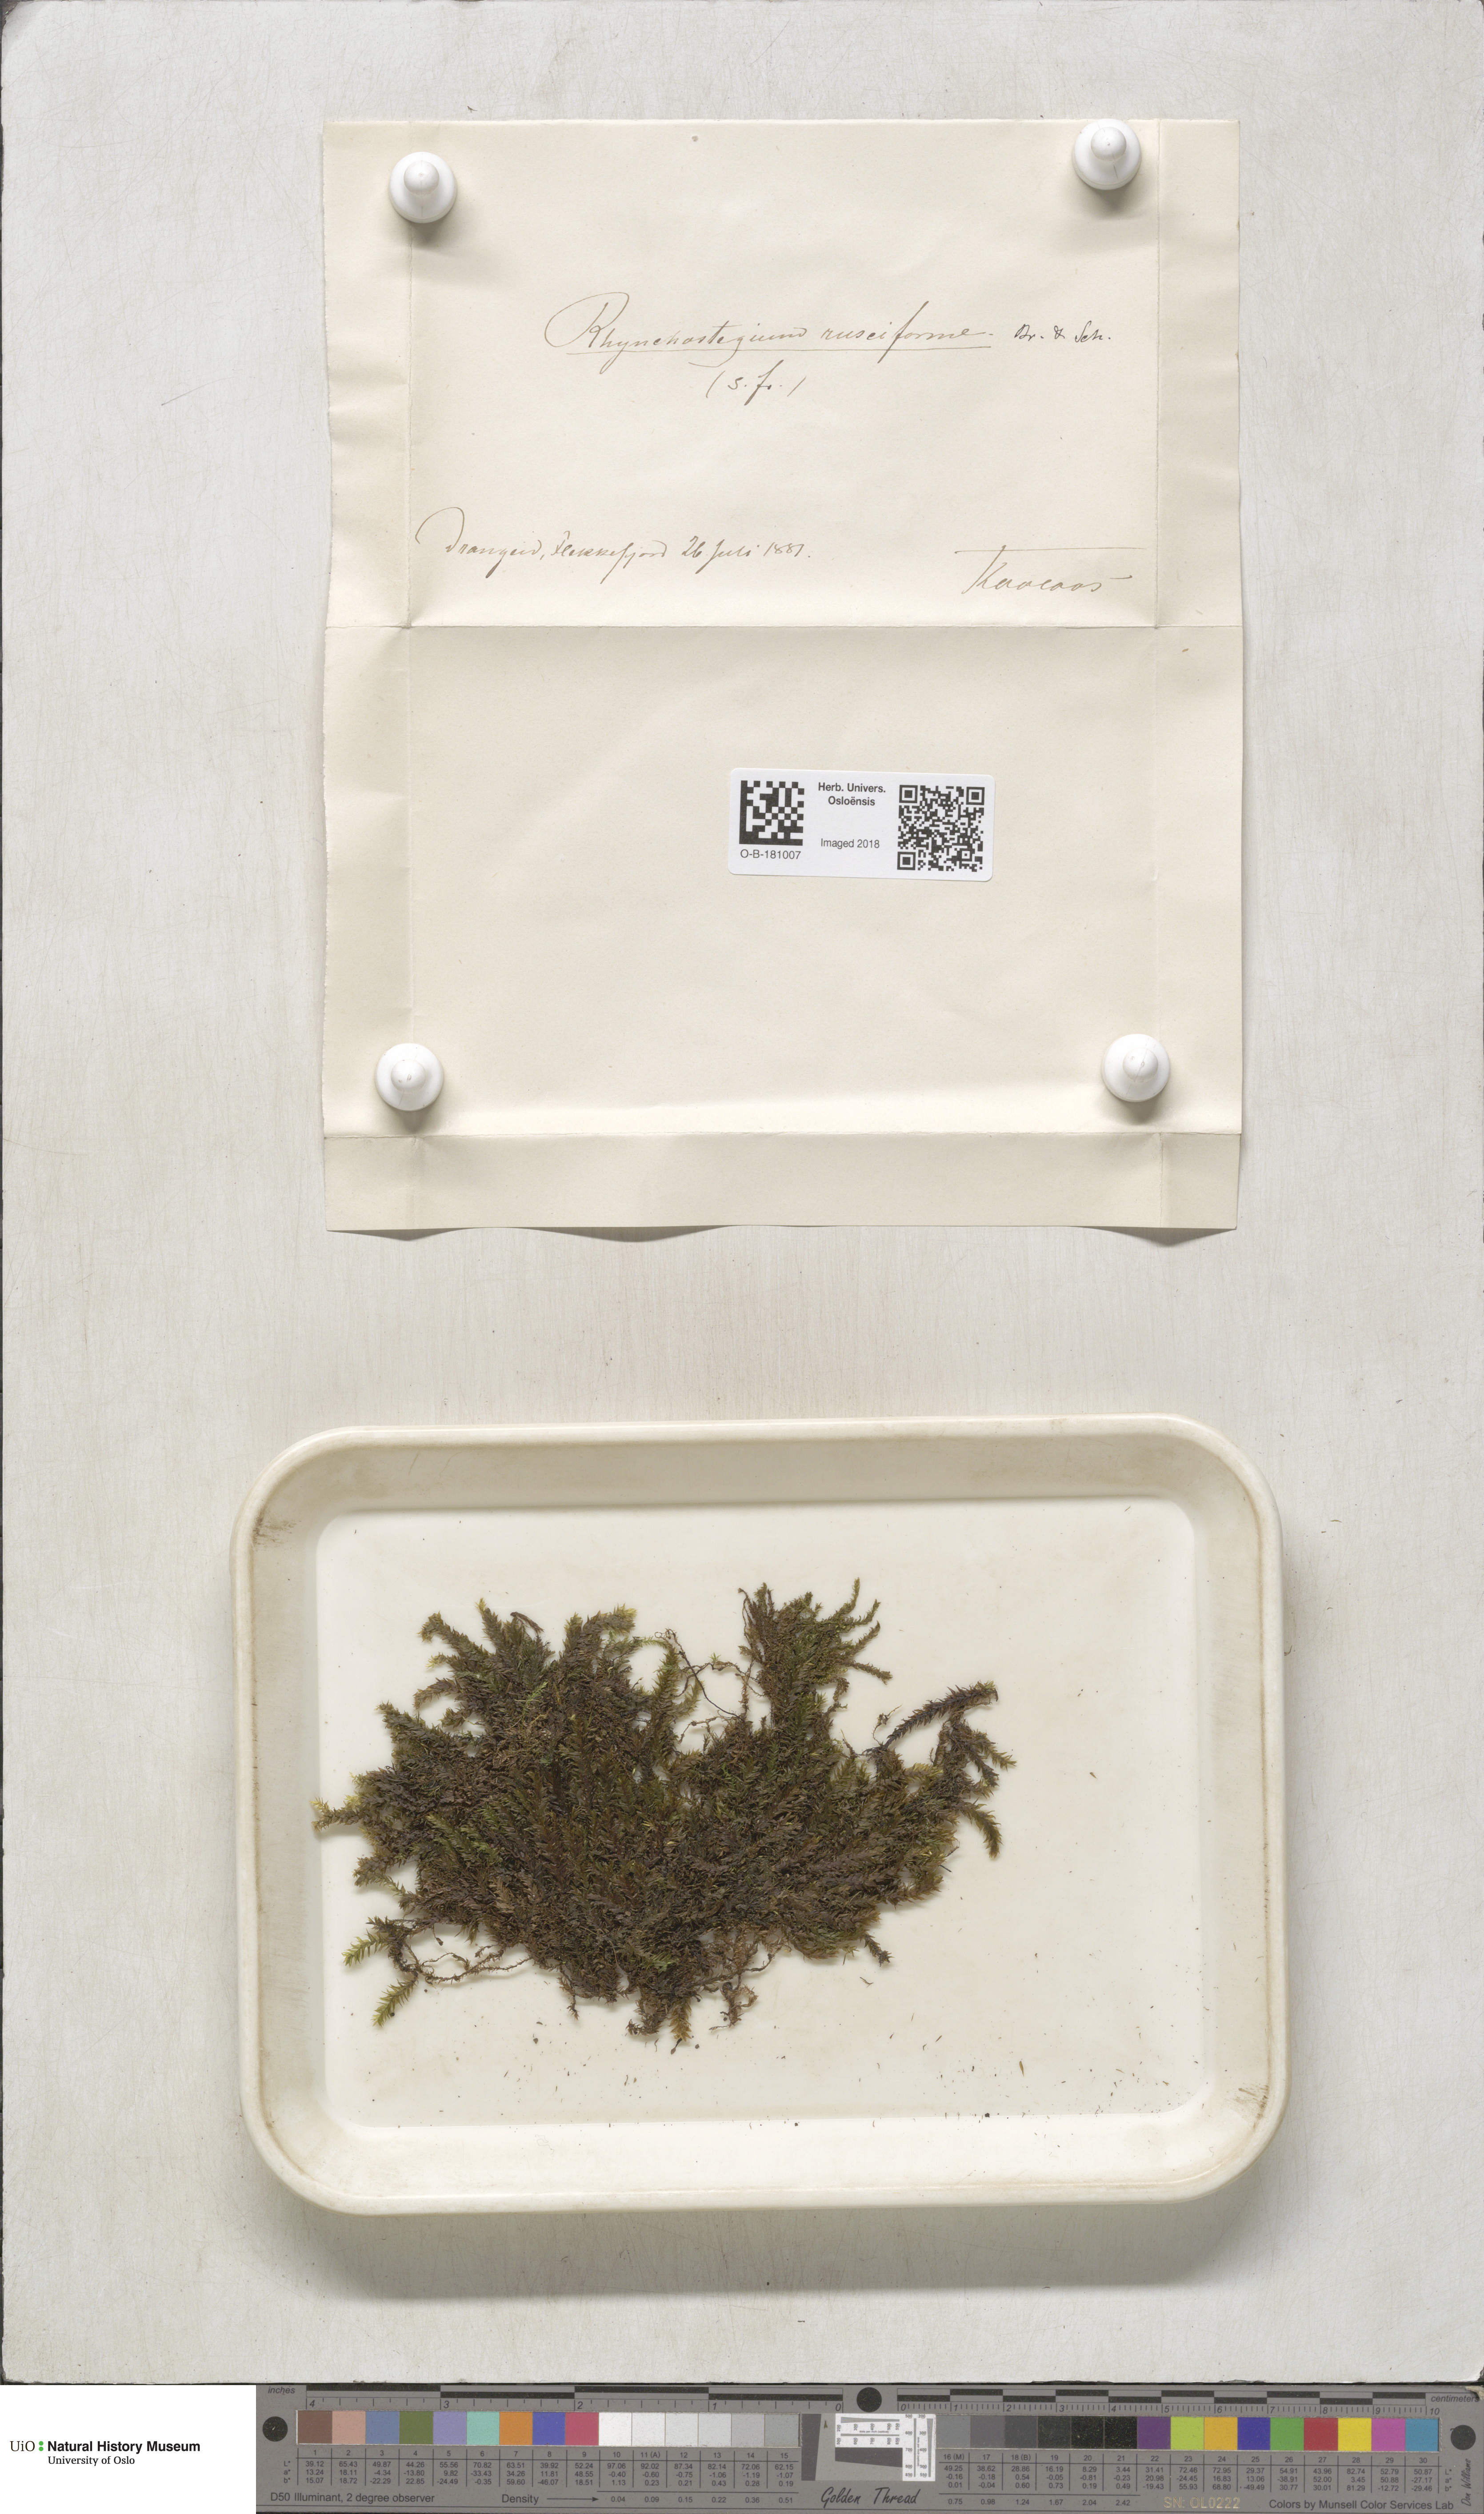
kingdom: Plantae
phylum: Bryophyta
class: Bryopsida
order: Hypnales
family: Brachytheciaceae
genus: Rhynchostegium
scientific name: Rhynchostegium riparioides
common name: Platyhypnidium moss
